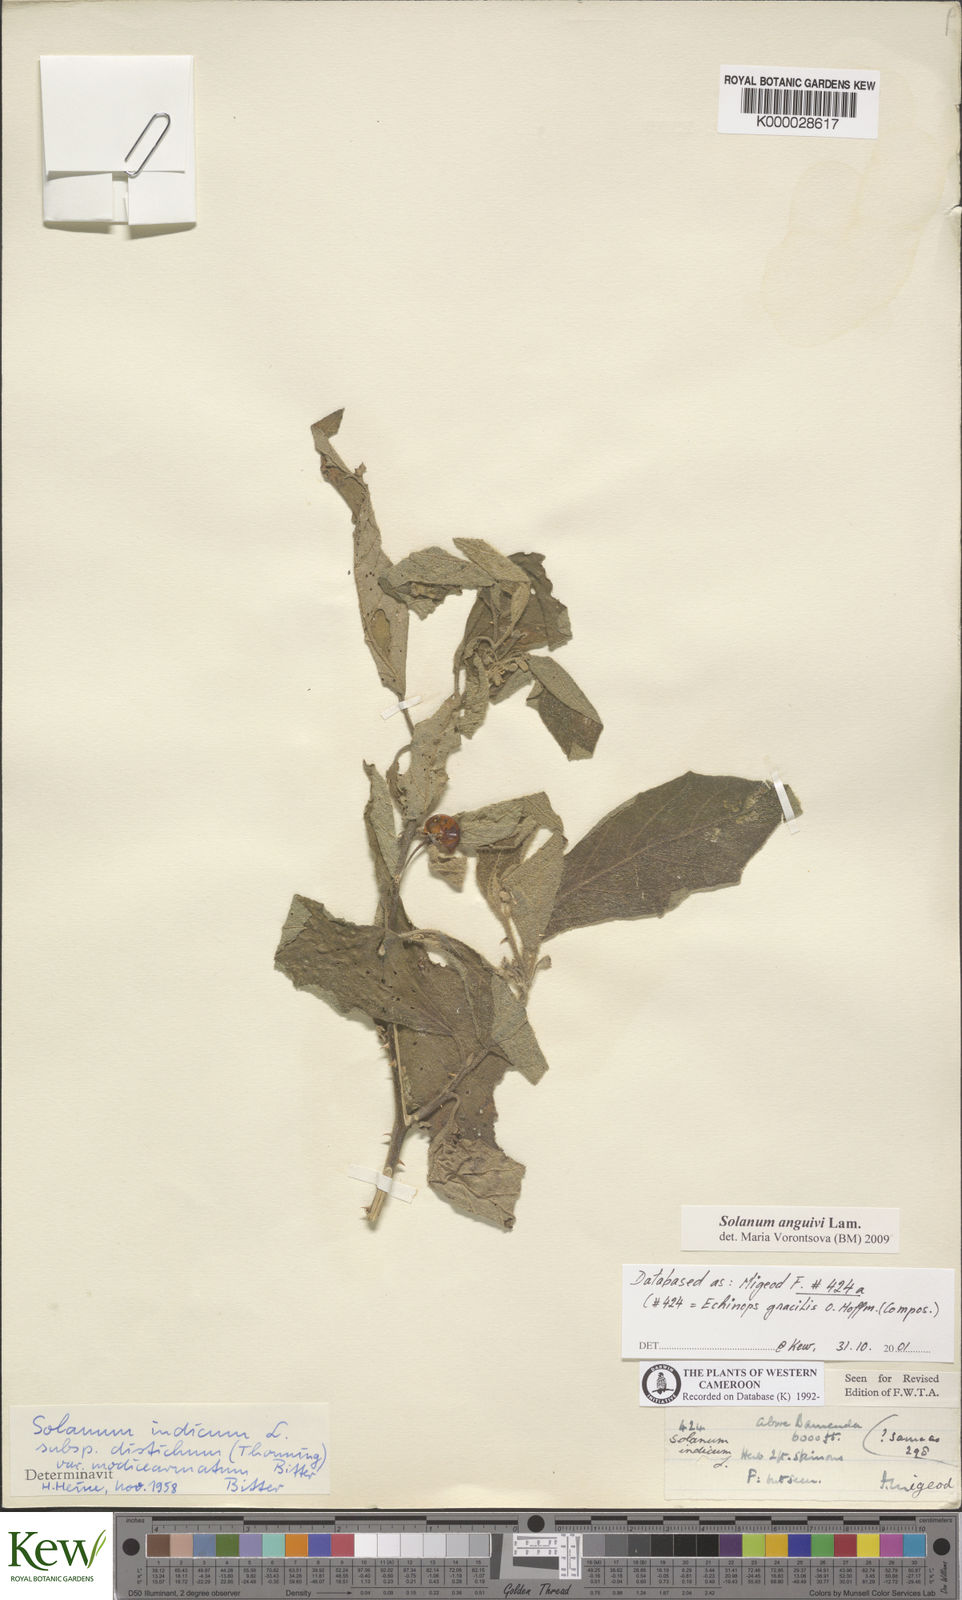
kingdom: Plantae
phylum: Tracheophyta
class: Magnoliopsida
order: Solanales
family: Solanaceae
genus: Solanum
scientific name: Solanum anguivi
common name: Forest bitterberry
